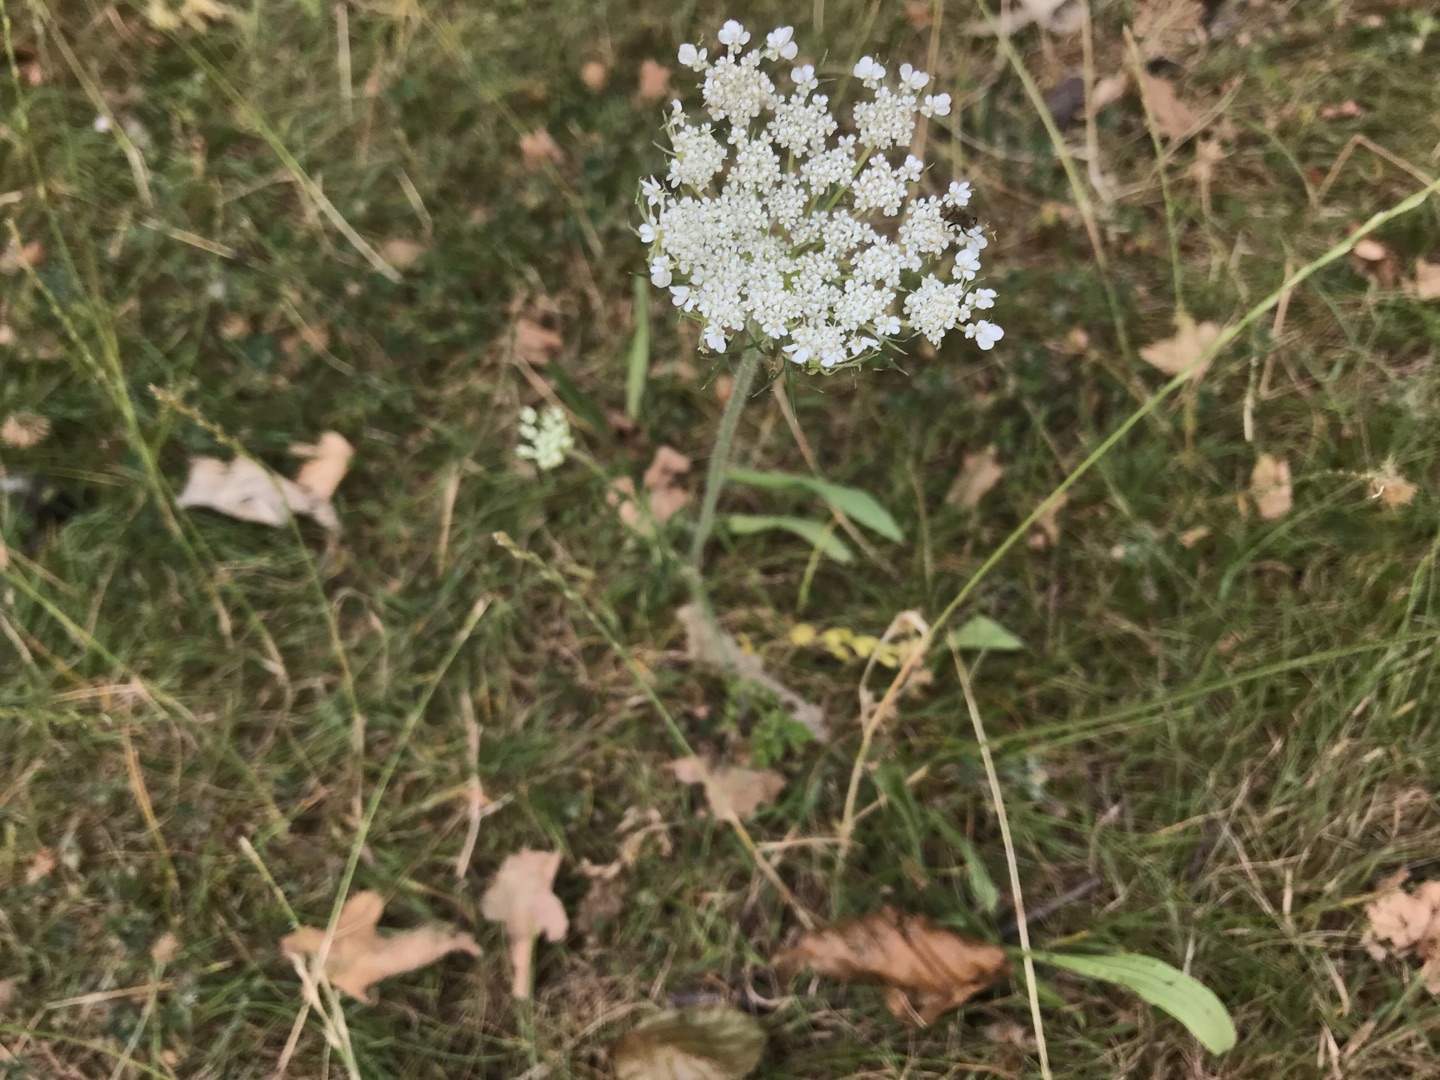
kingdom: Plantae
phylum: Tracheophyta
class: Magnoliopsida
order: Apiales
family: Apiaceae
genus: Daucus
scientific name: Daucus carota
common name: Gulerod
